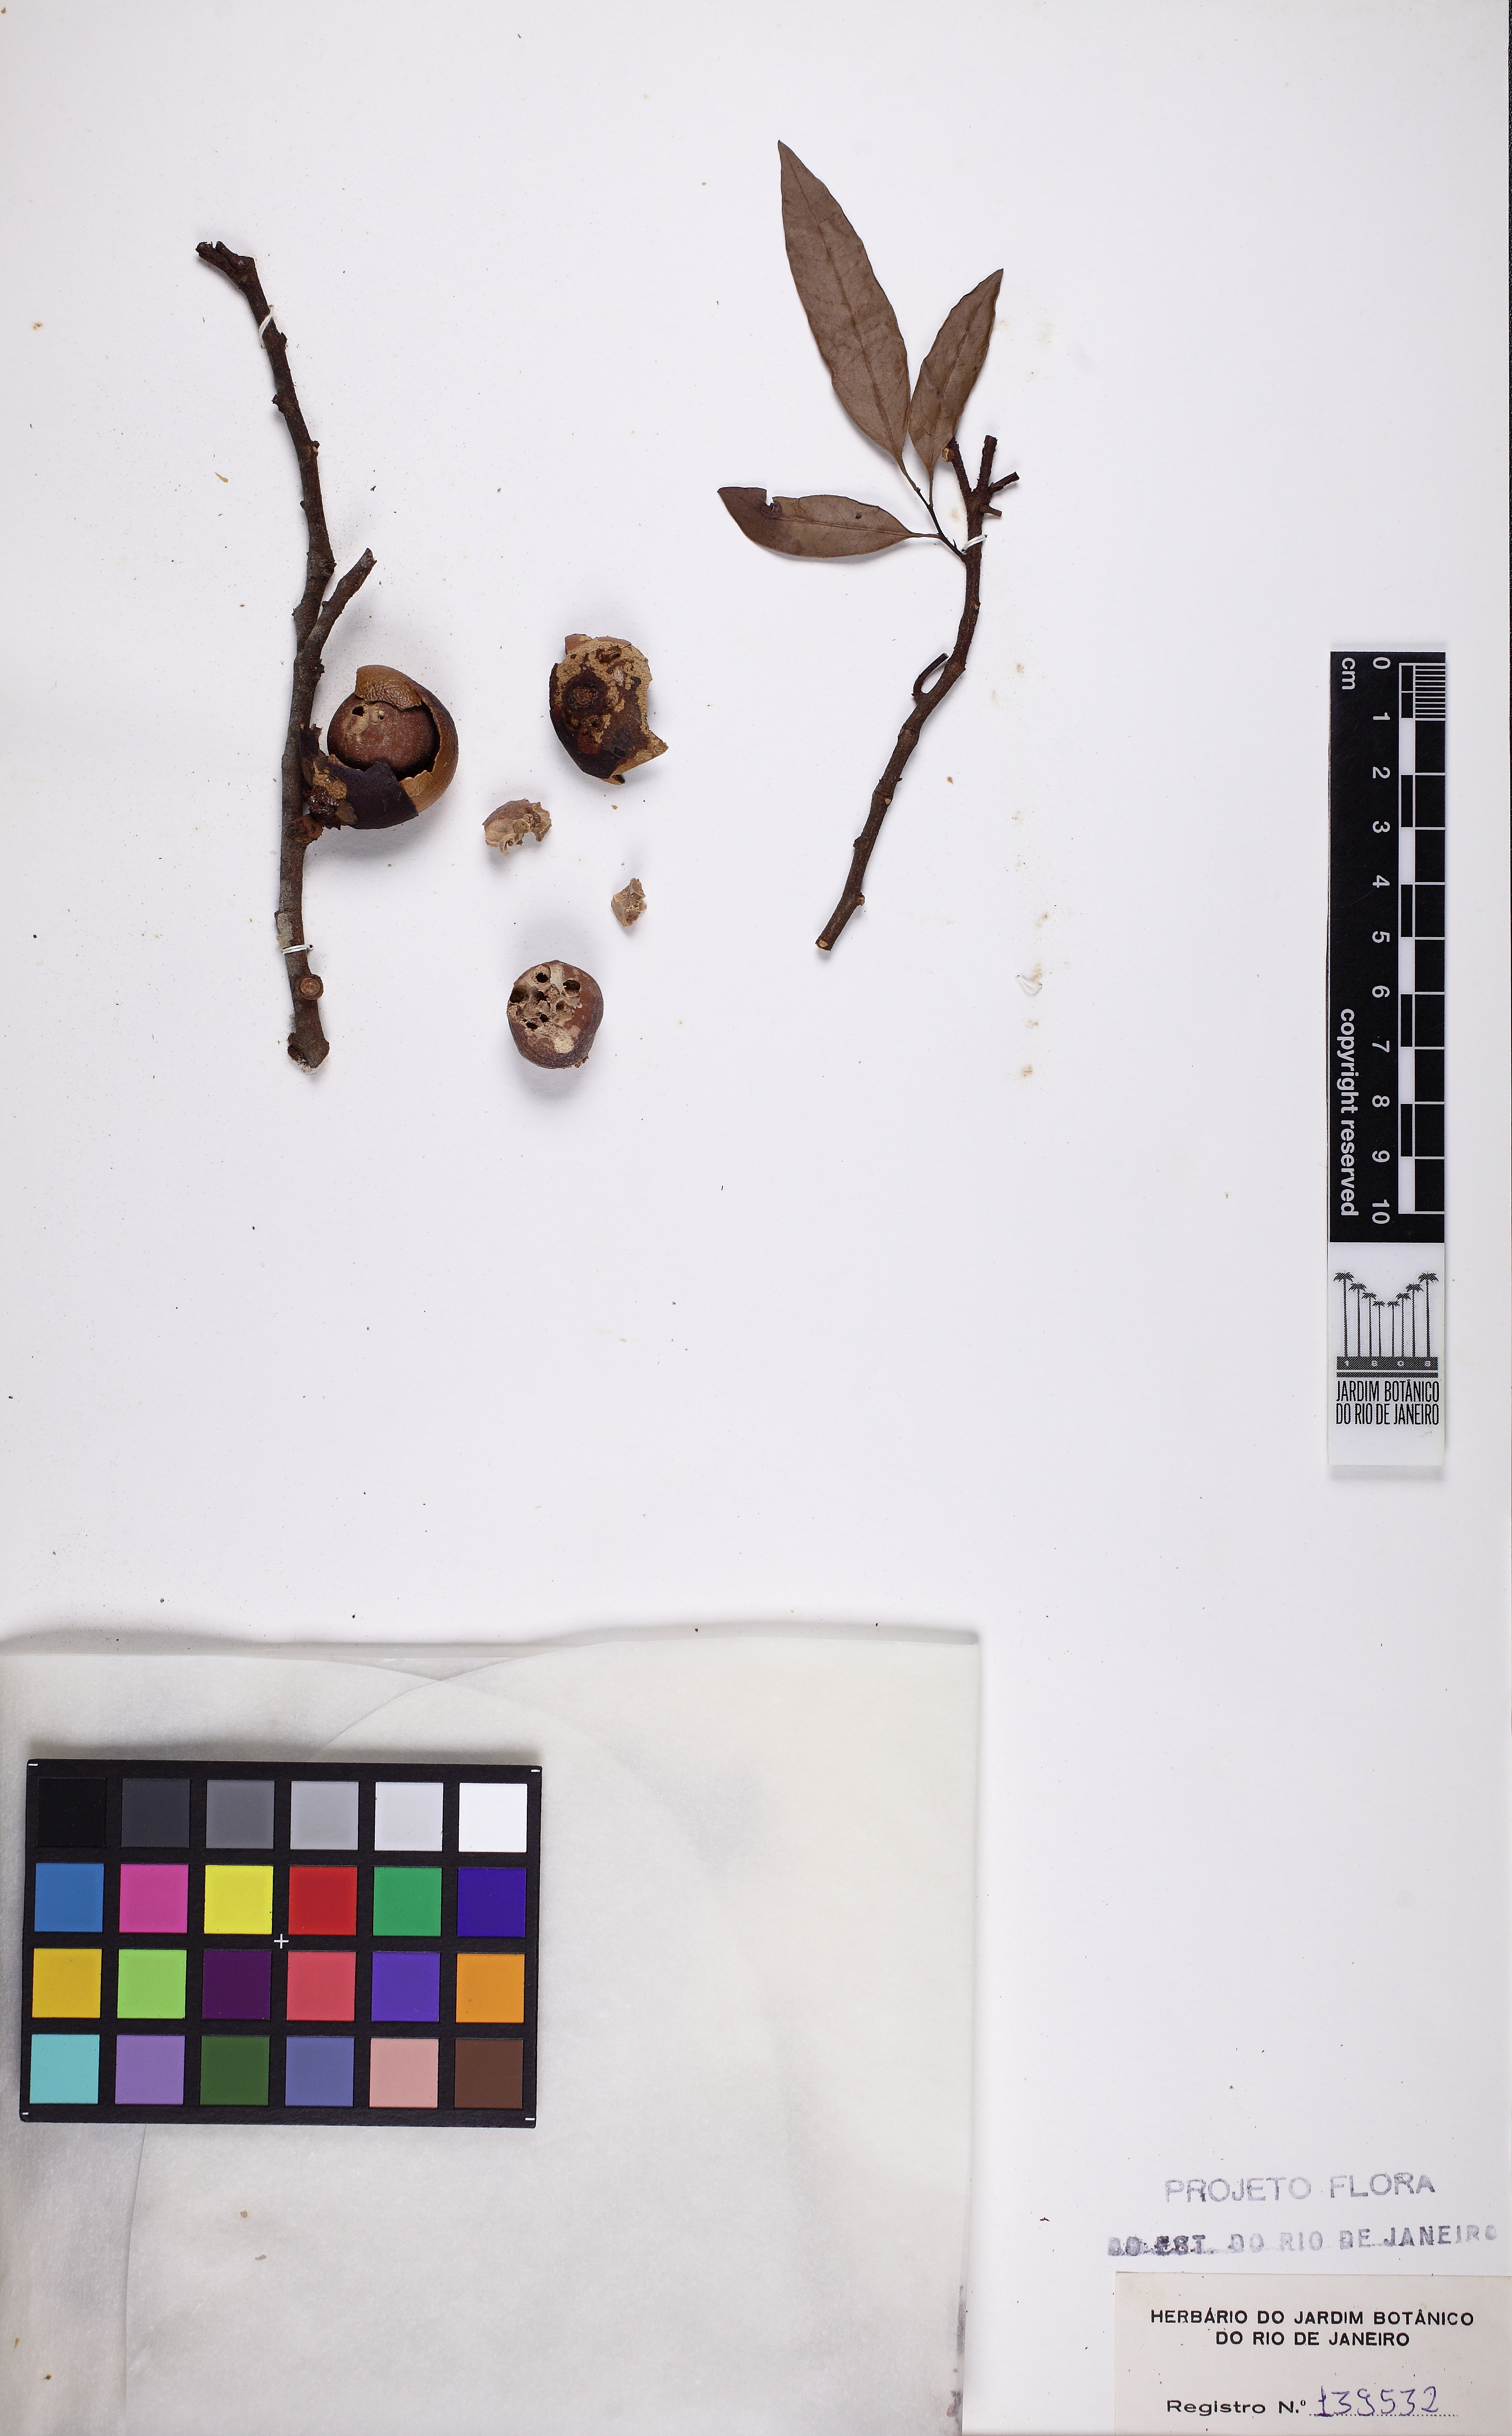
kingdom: Plantae
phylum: Tracheophyta
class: Magnoliopsida
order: Santalales
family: Aptandraceae
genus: Cathedra
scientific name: Cathedra rubricaulis
